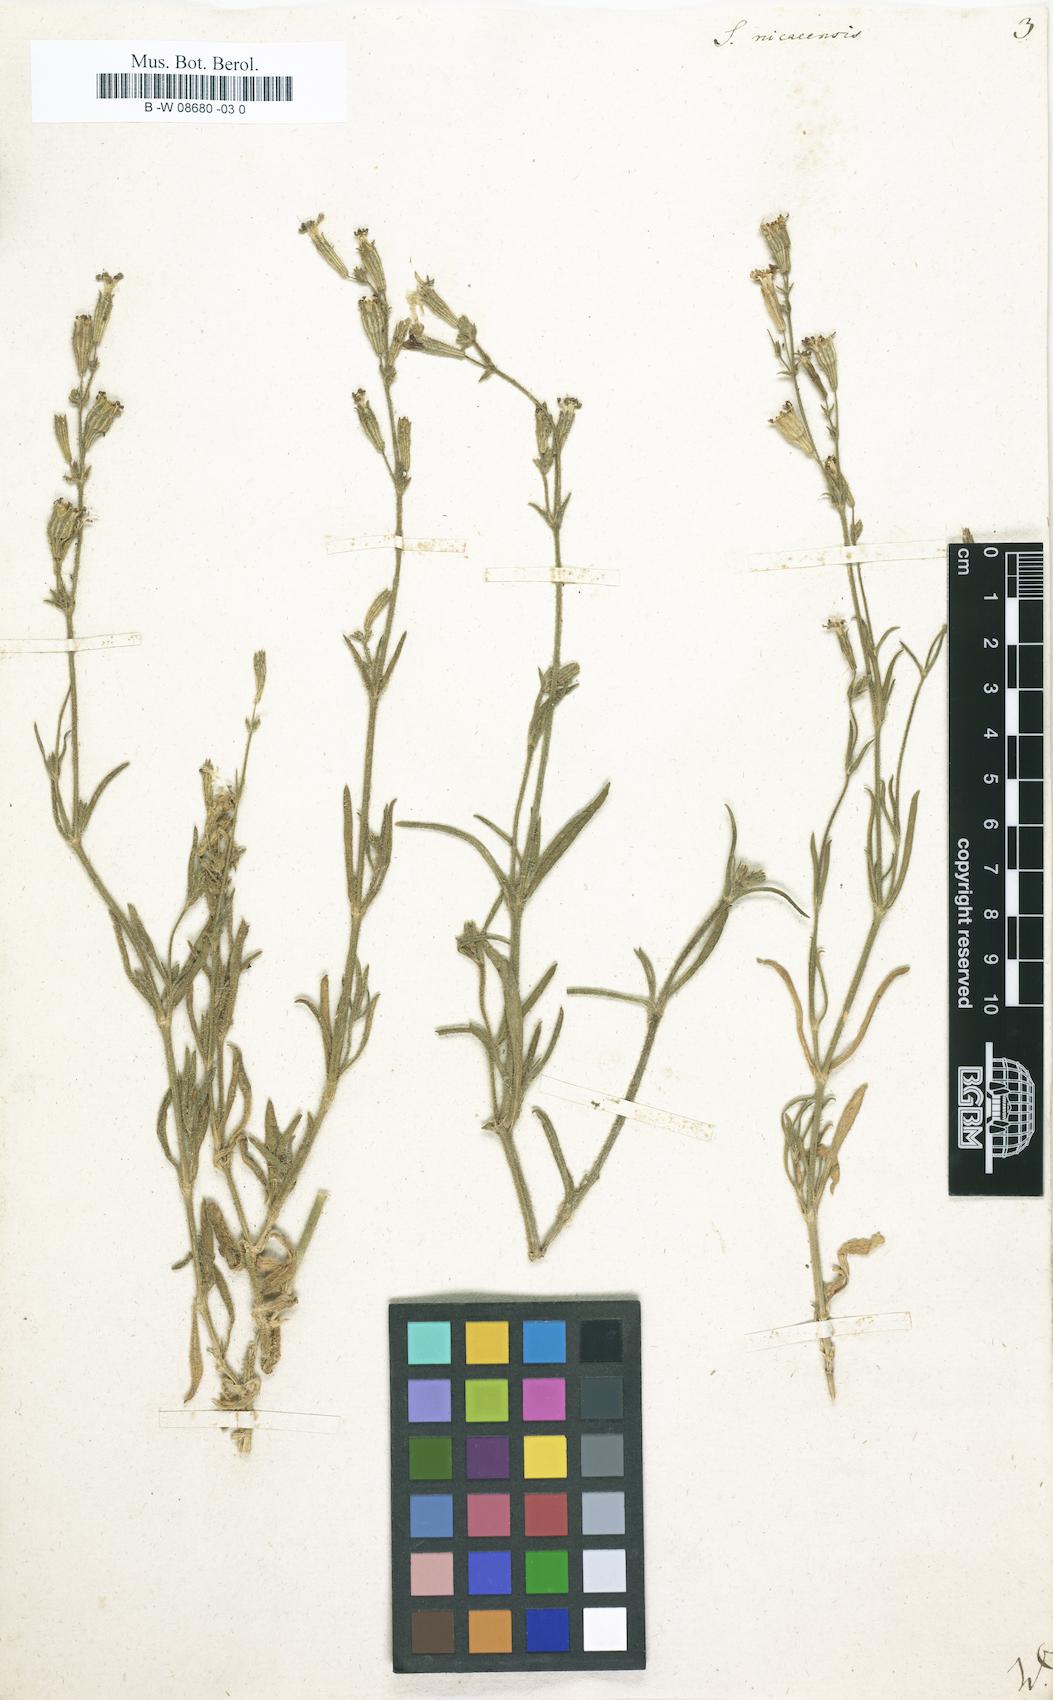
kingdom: Plantae
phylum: Tracheophyta
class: Magnoliopsida
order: Caryophyllales
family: Caryophyllaceae
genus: Silene
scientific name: Silene nicaeensis
